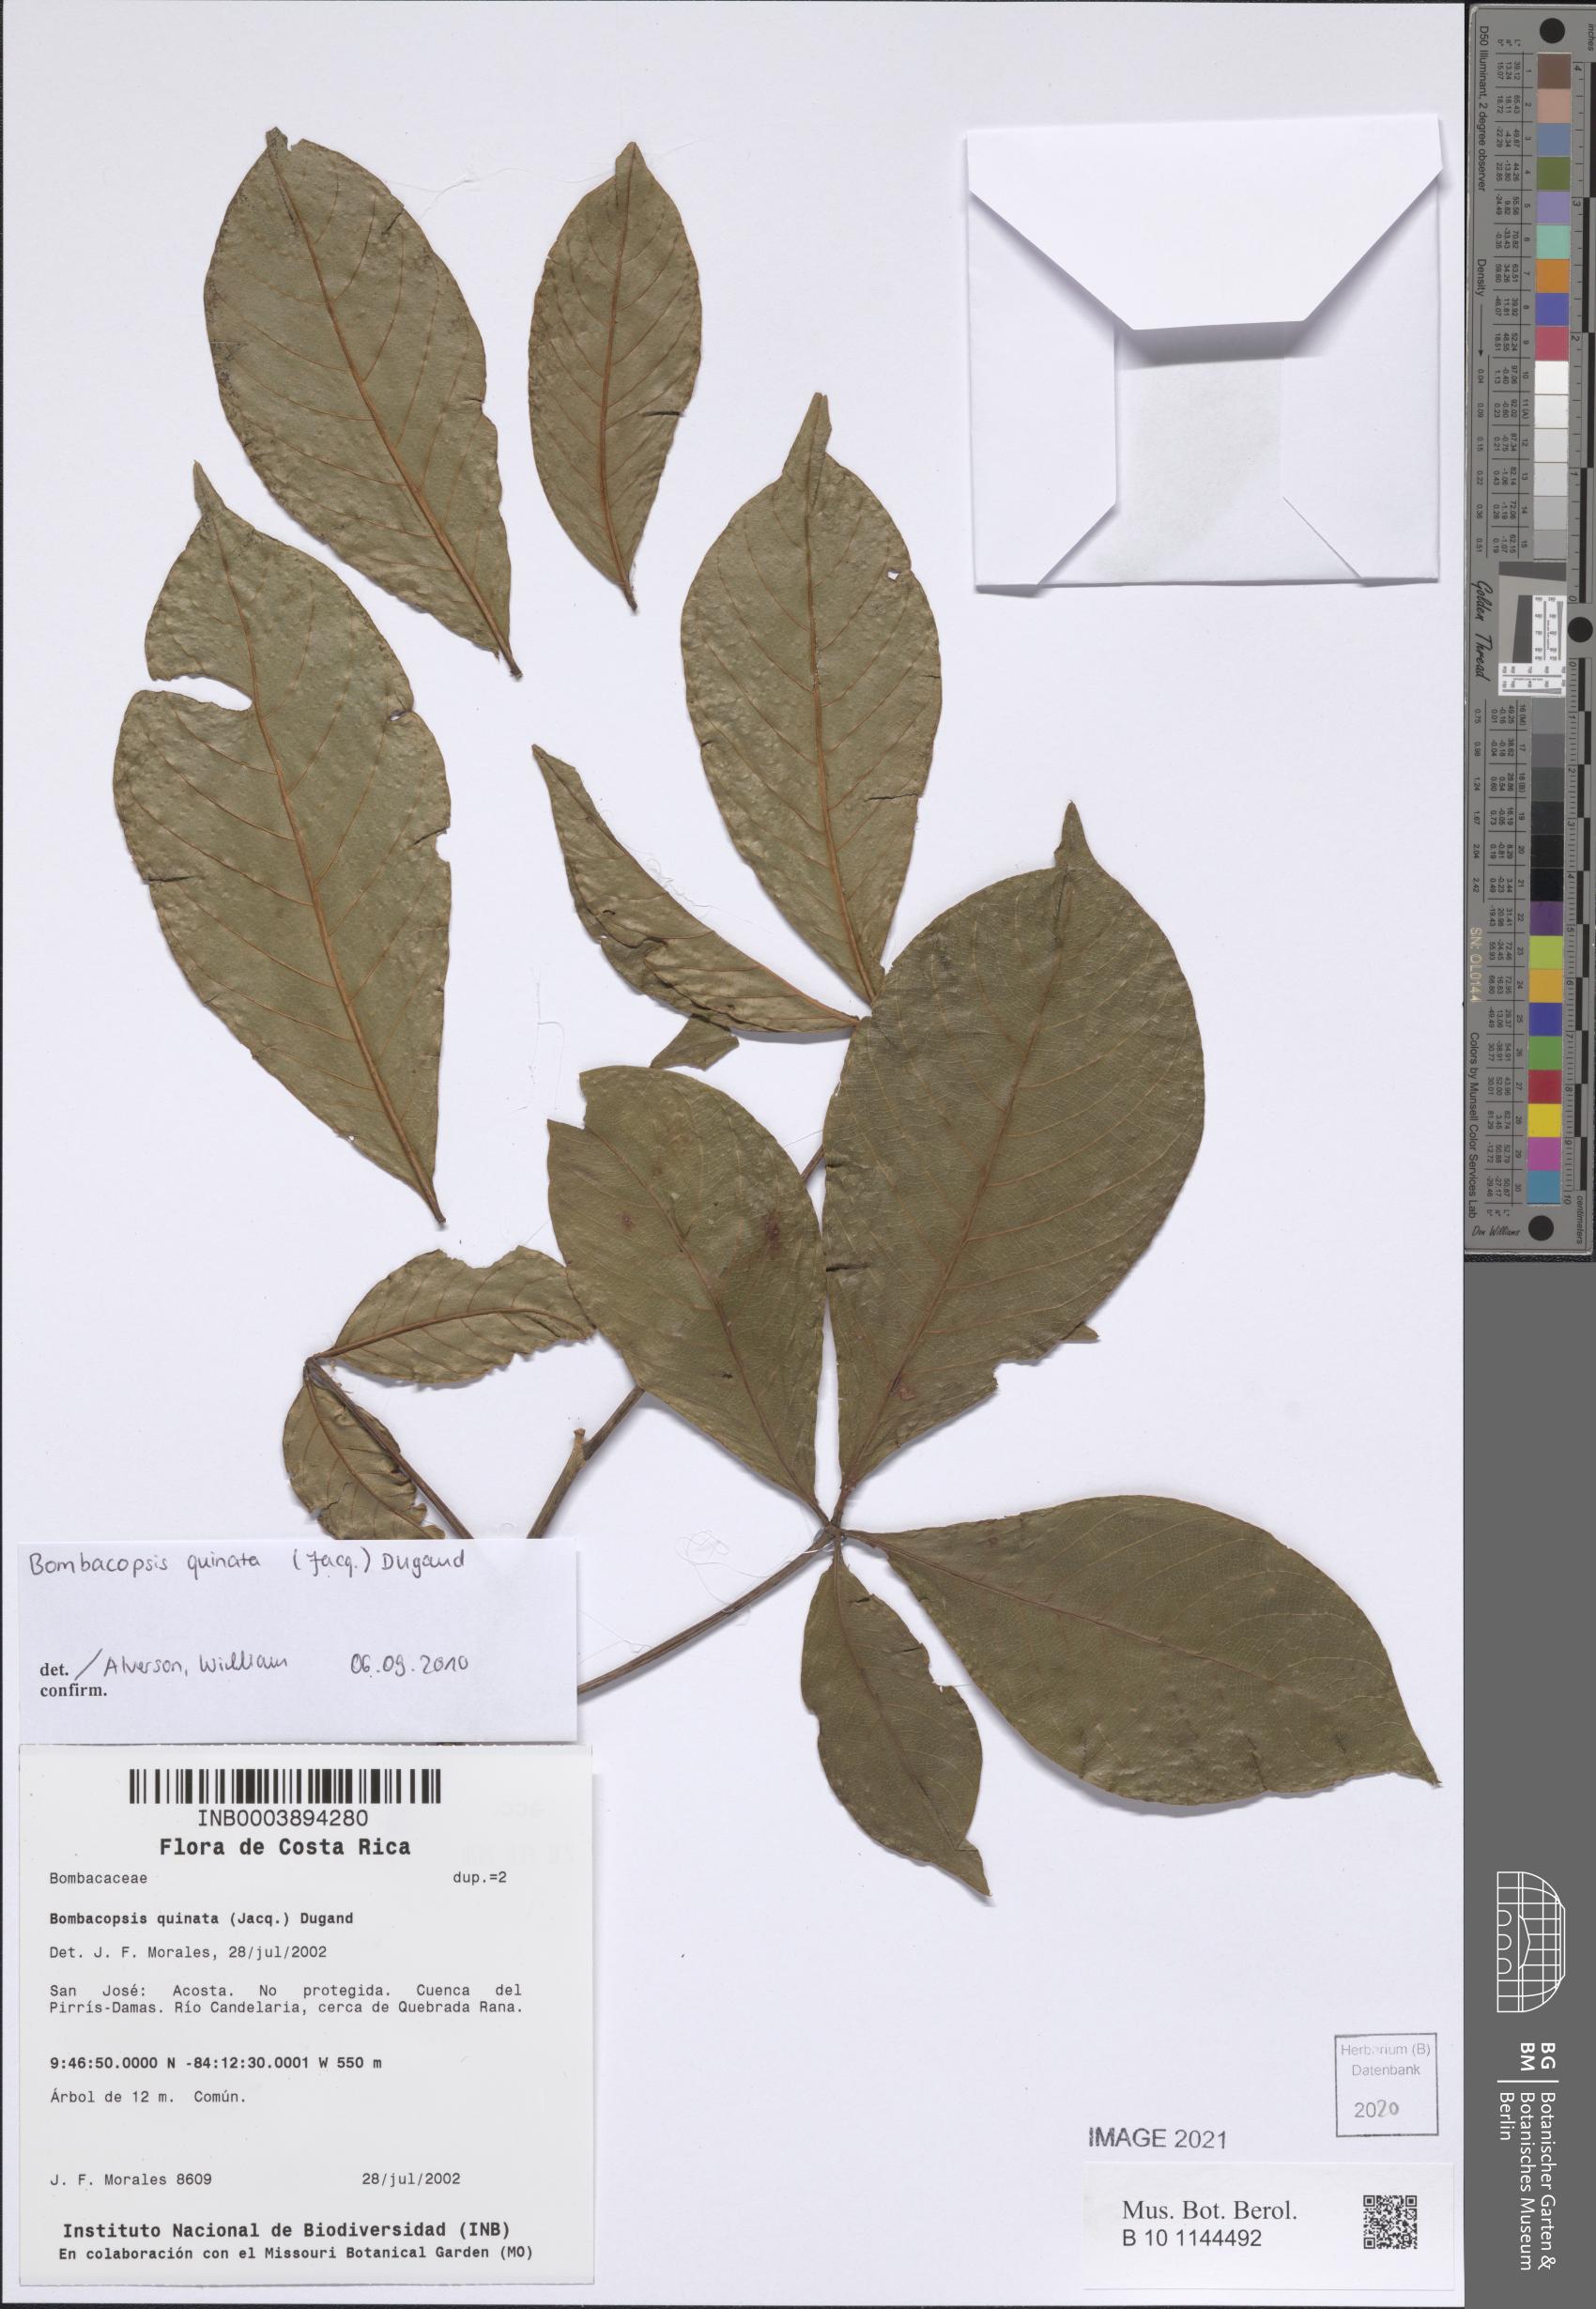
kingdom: Plantae
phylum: Tracheophyta
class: Magnoliopsida
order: Malvales
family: Malvaceae
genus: Pochota
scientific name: Pochota fendleri
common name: Chestnut
